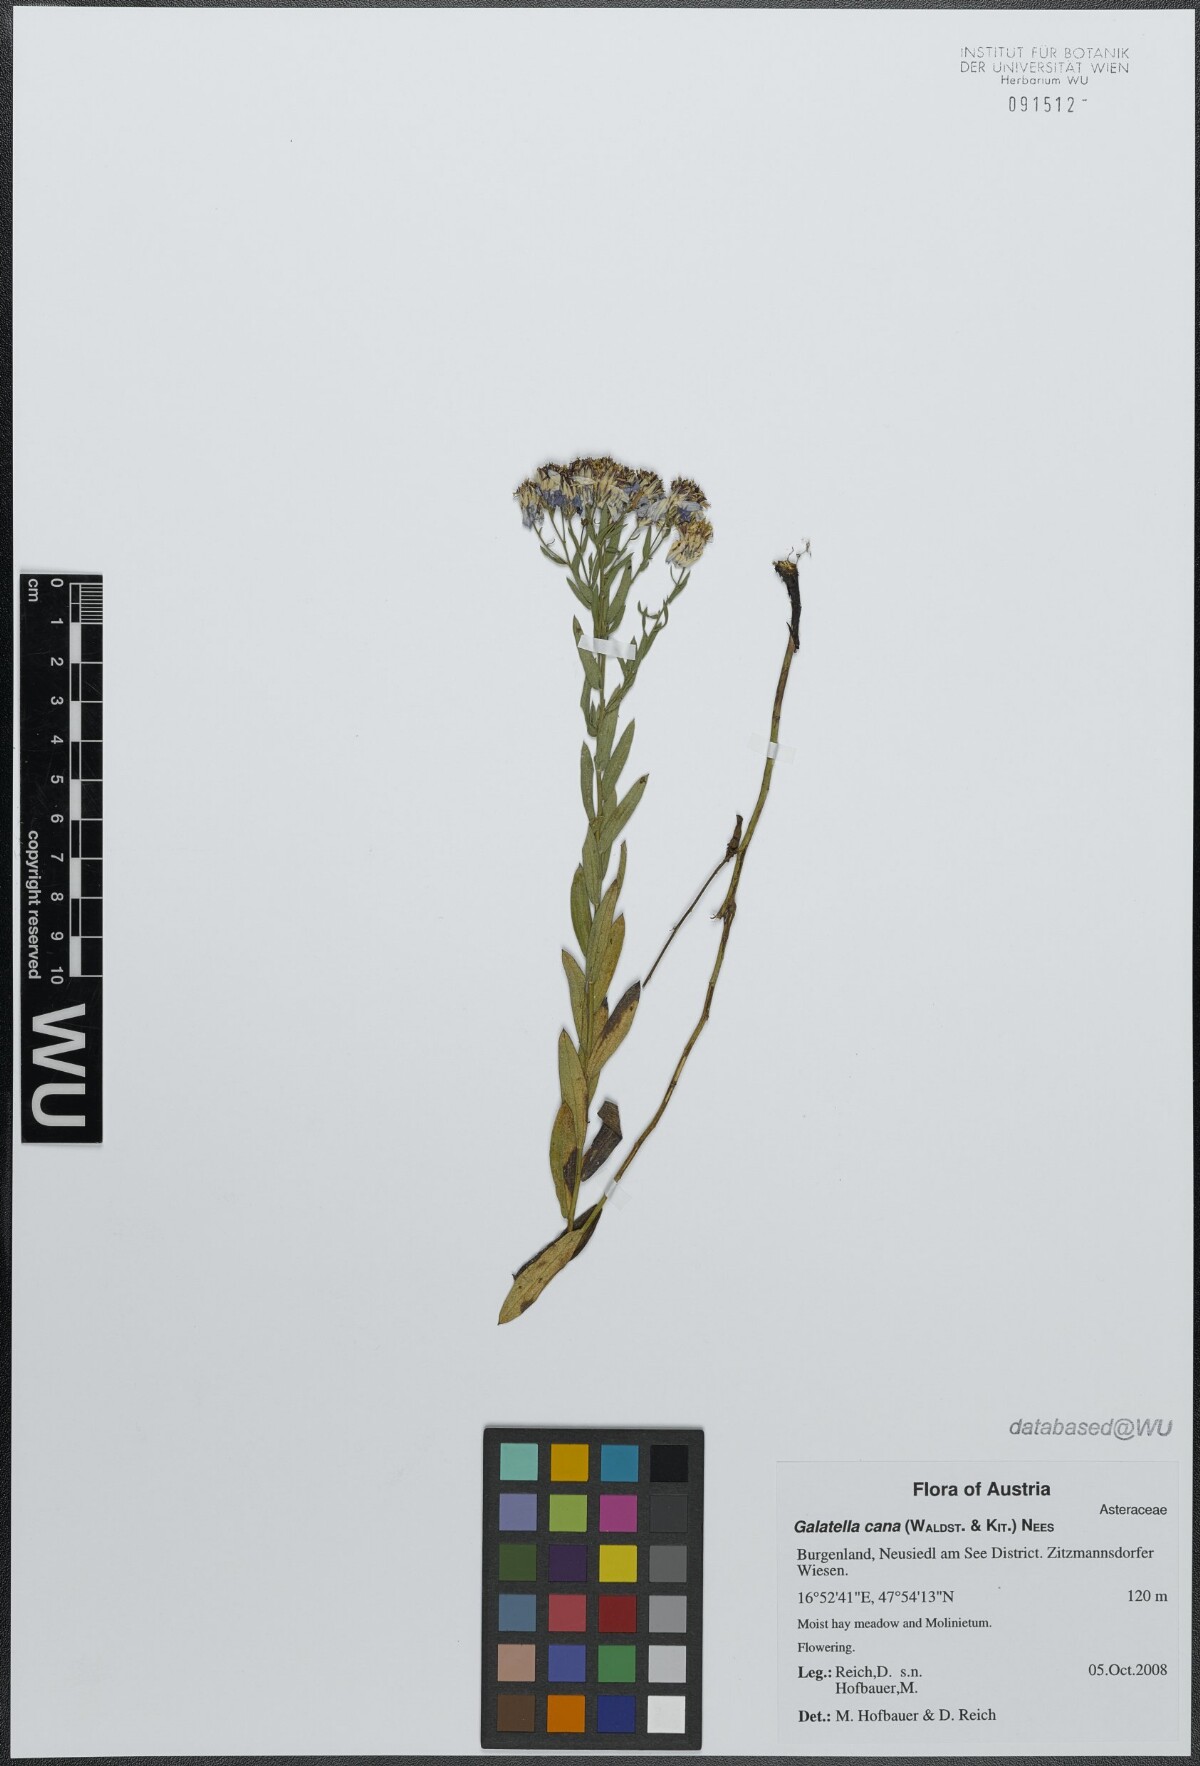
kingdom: Plantae
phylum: Tracheophyta
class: Magnoliopsida
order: Asterales
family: Asteraceae
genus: Galatella
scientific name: Galatella cana
